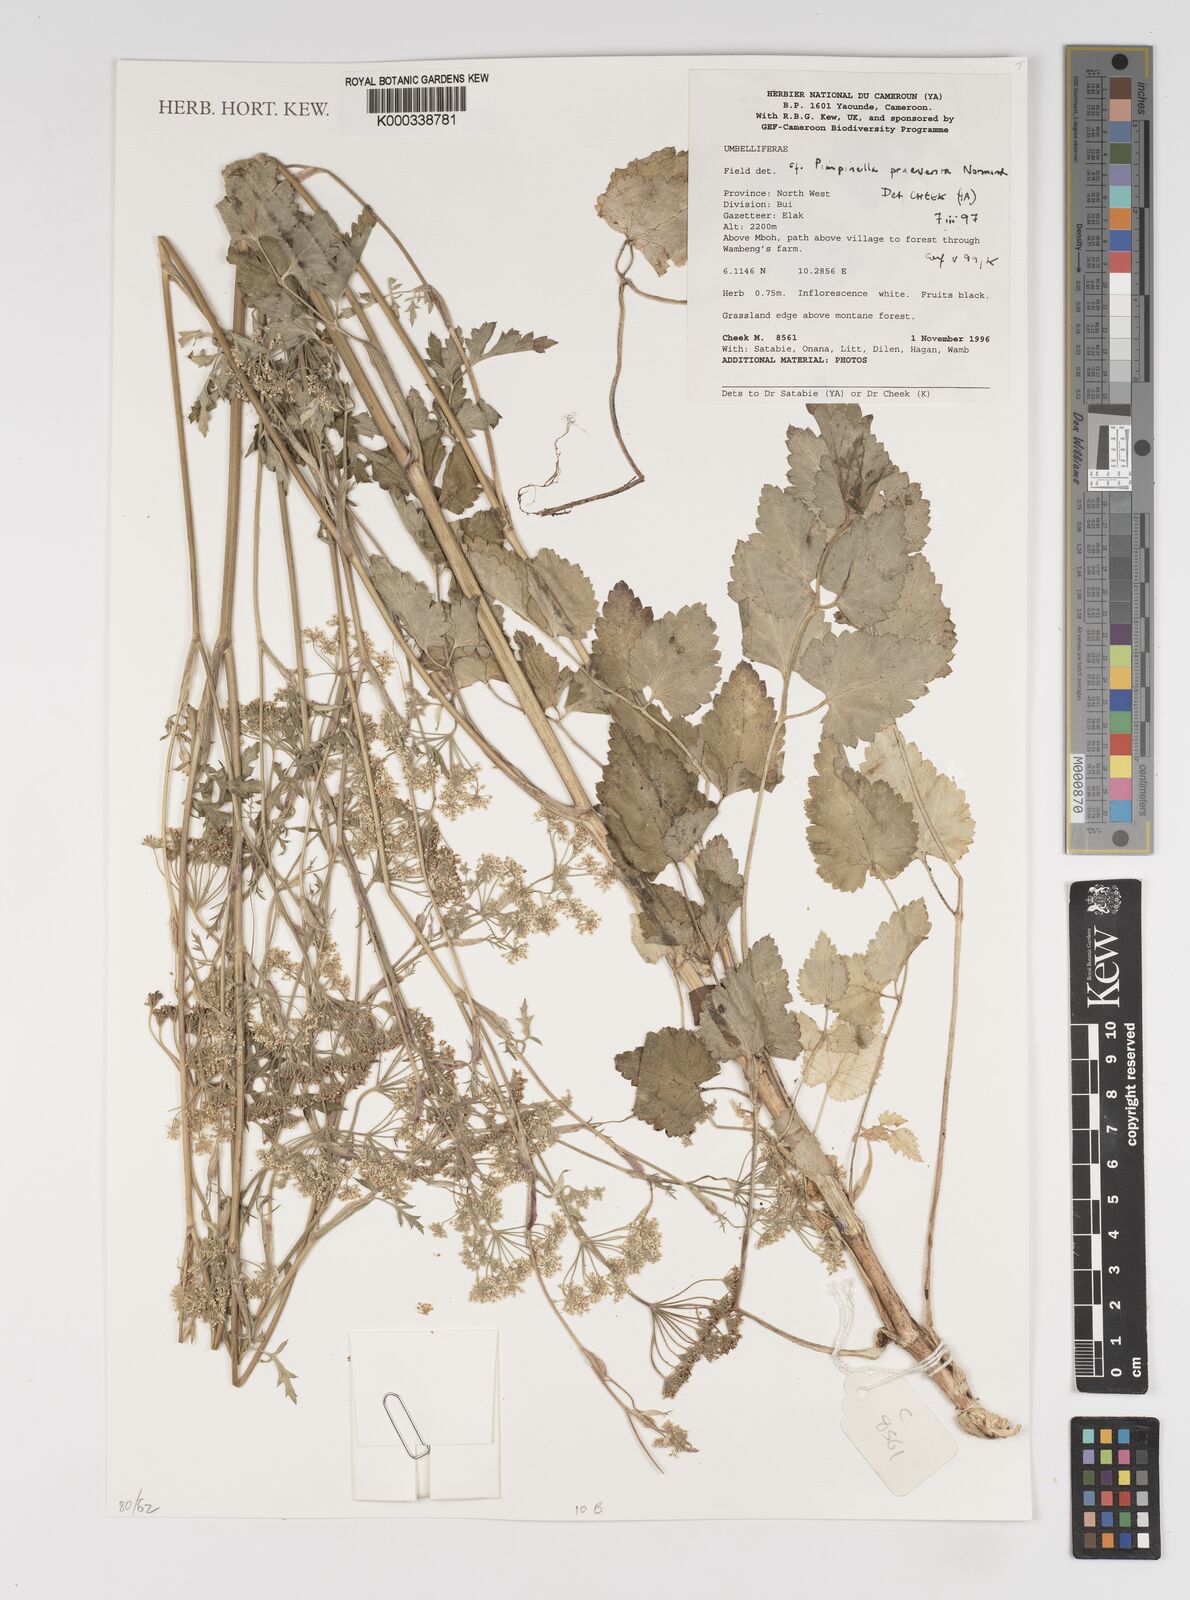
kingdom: Plantae
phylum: Tracheophyta
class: Magnoliopsida
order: Apiales
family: Apiaceae
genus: Pimpinella
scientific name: Pimpinella hirtella
